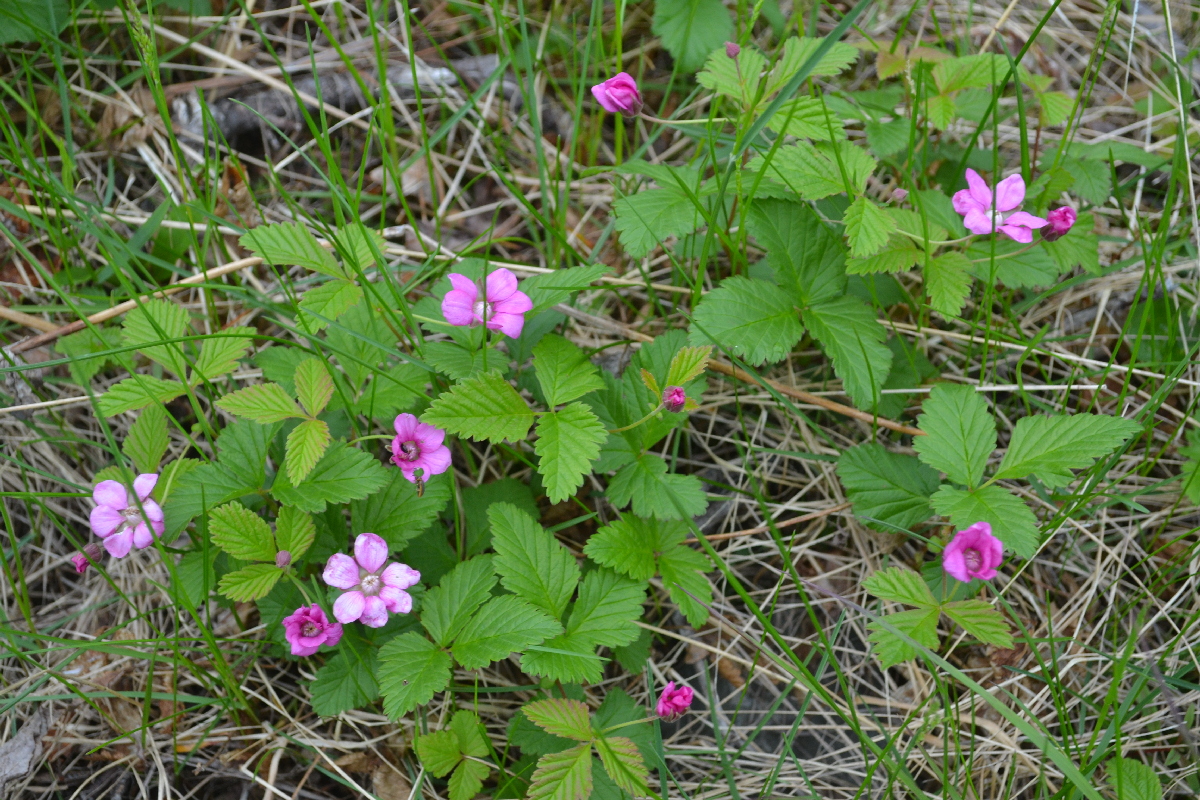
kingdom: Plantae
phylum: Tracheophyta
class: Magnoliopsida
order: Rosales
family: Rosaceae
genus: Rubus
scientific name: Rubus arcticus
